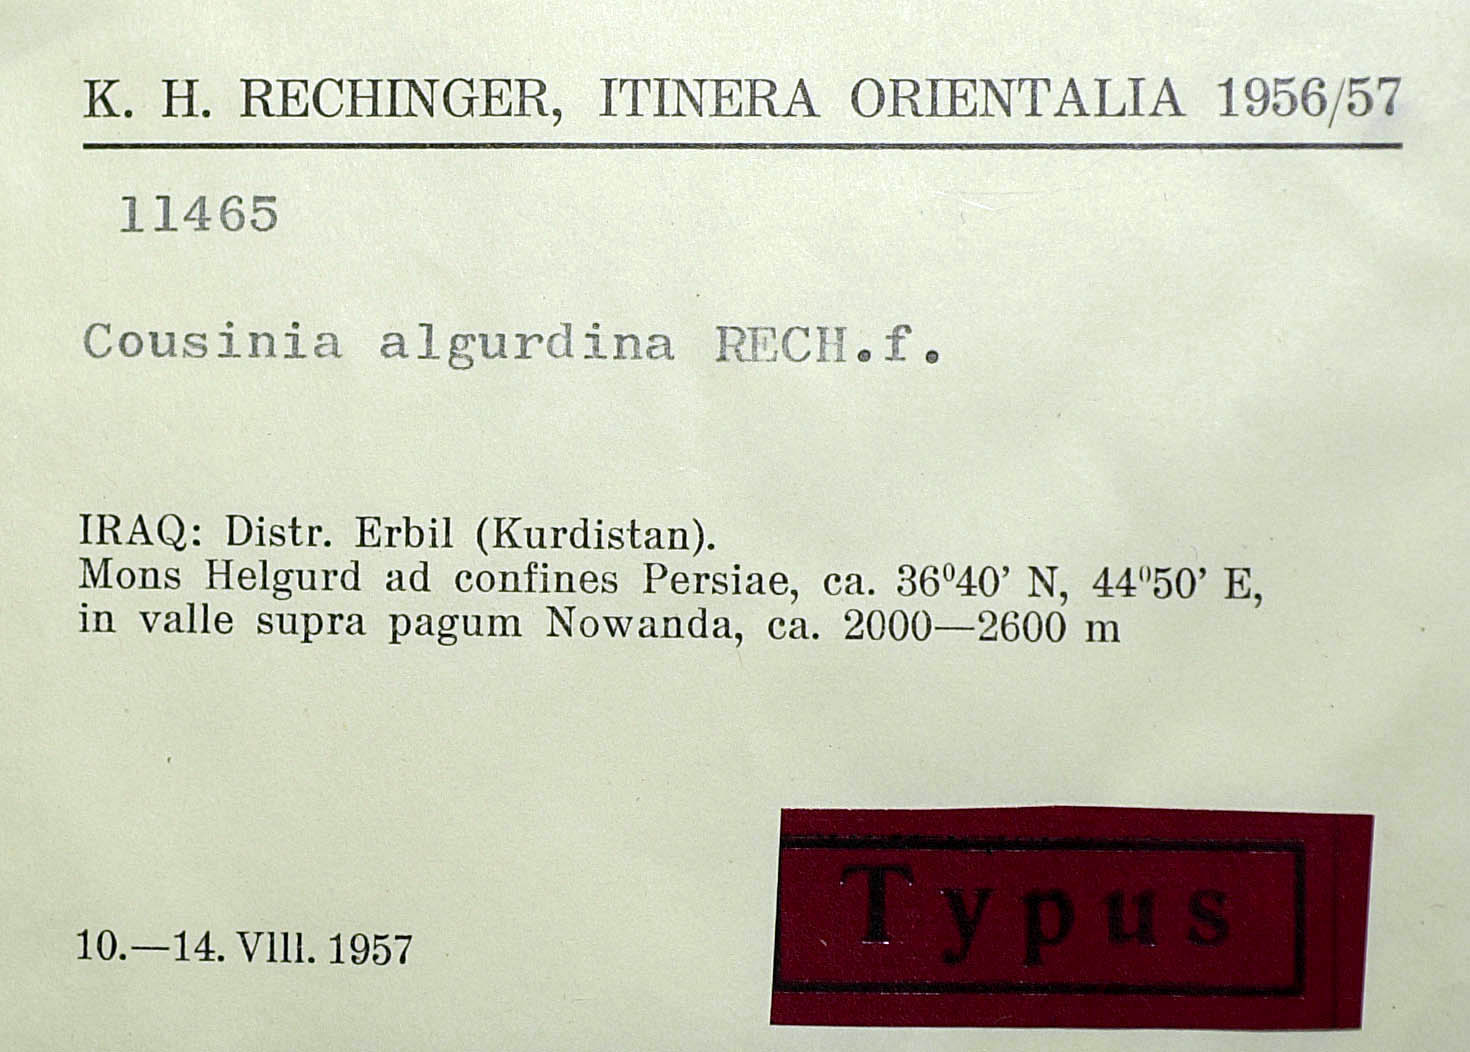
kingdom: Plantae
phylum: Tracheophyta
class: Magnoliopsida
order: Asterales
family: Asteraceae
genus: Cousinia
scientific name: Cousinia algurdina
